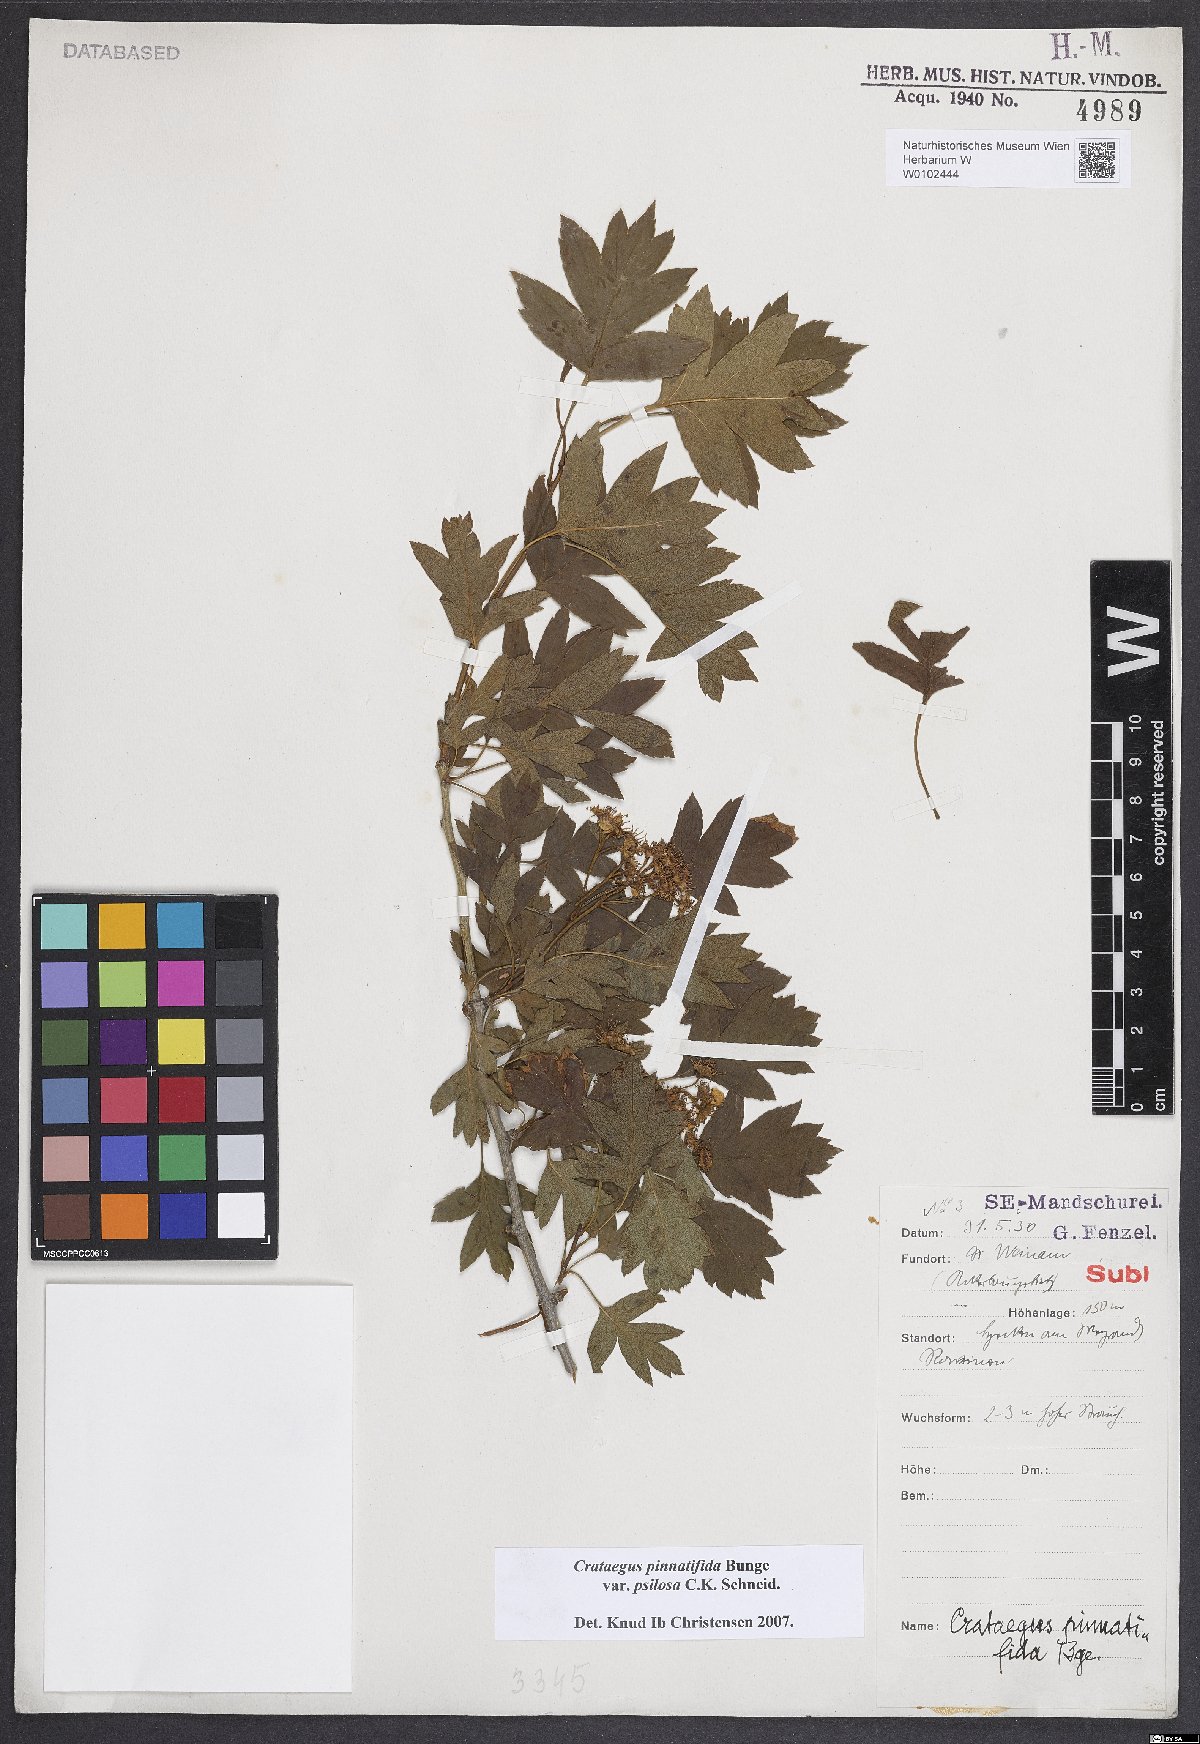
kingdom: Plantae
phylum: Tracheophyta
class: Magnoliopsida
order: Rosales
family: Rosaceae
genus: Crataegus
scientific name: Crataegus pinnatifida
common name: Chinese haw
